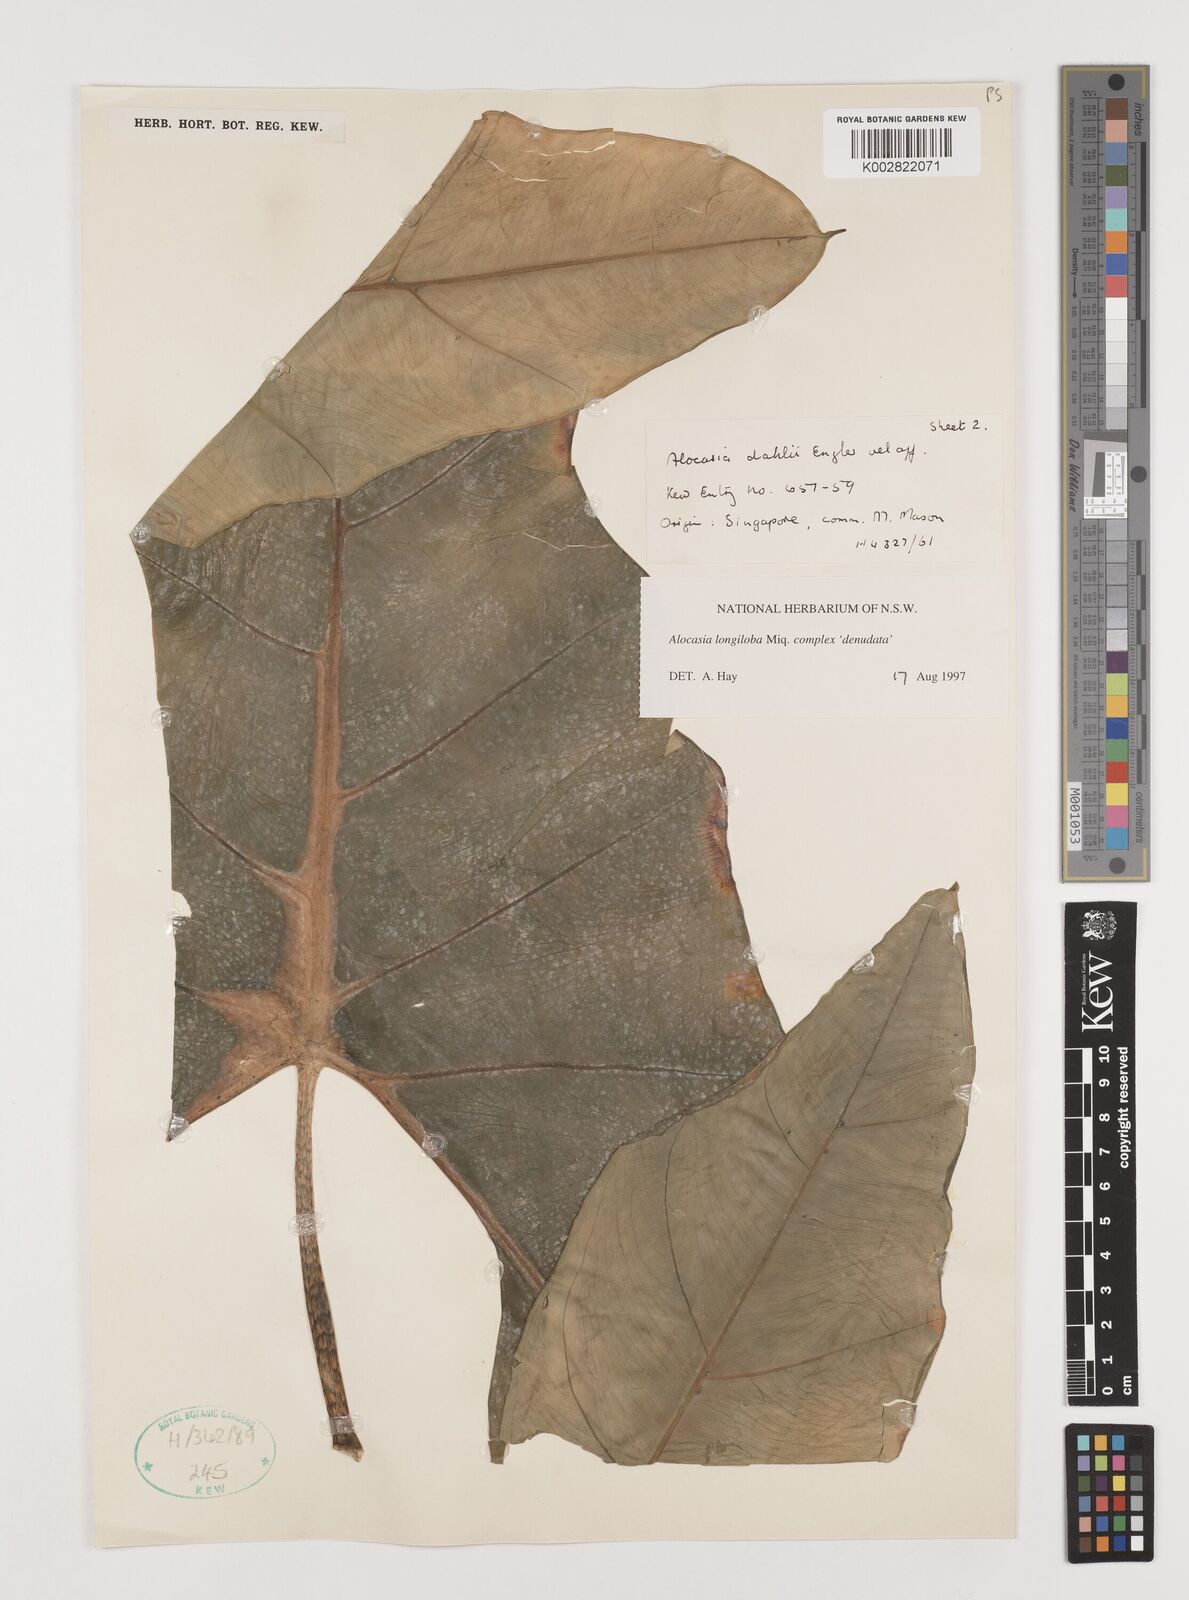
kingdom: Plantae
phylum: Tracheophyta
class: Liliopsida
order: Alismatales
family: Araceae
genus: Alocasia
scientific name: Alocasia longiloba
